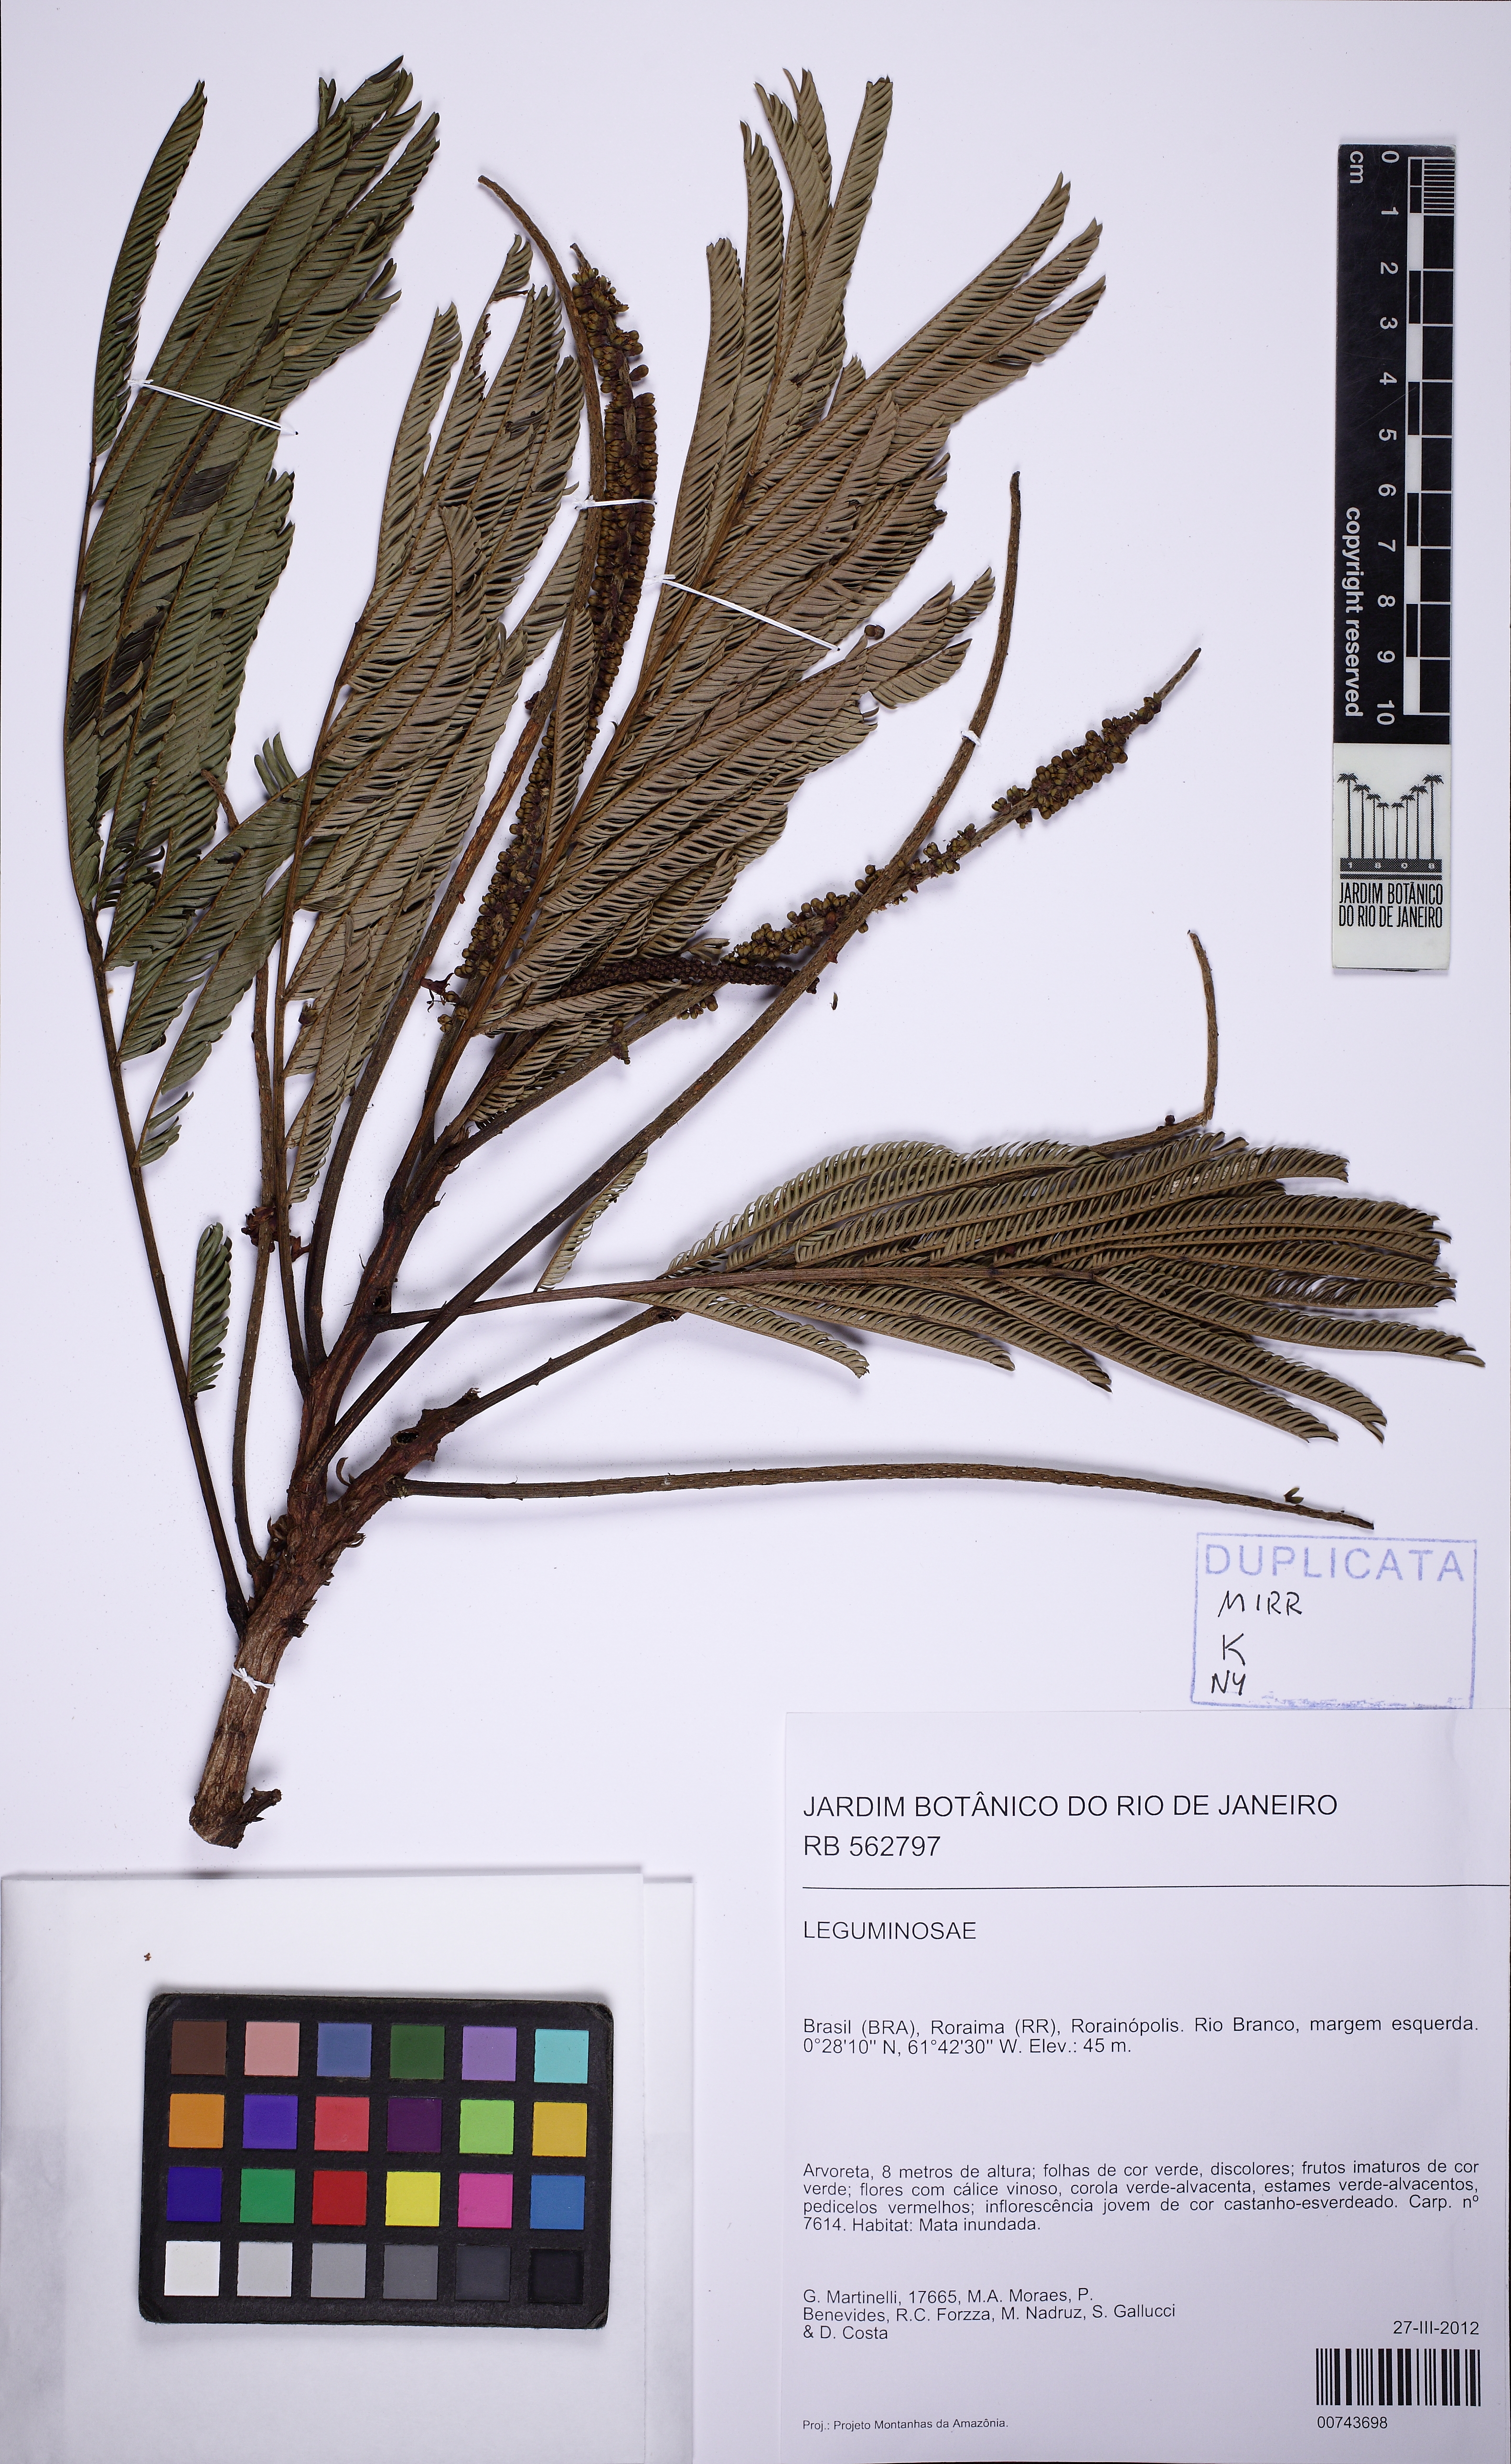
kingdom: Plantae
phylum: Tracheophyta
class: Magnoliopsida
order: Fabales
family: Fabaceae
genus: Pentaclethra
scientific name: Pentaclethra macroloba
